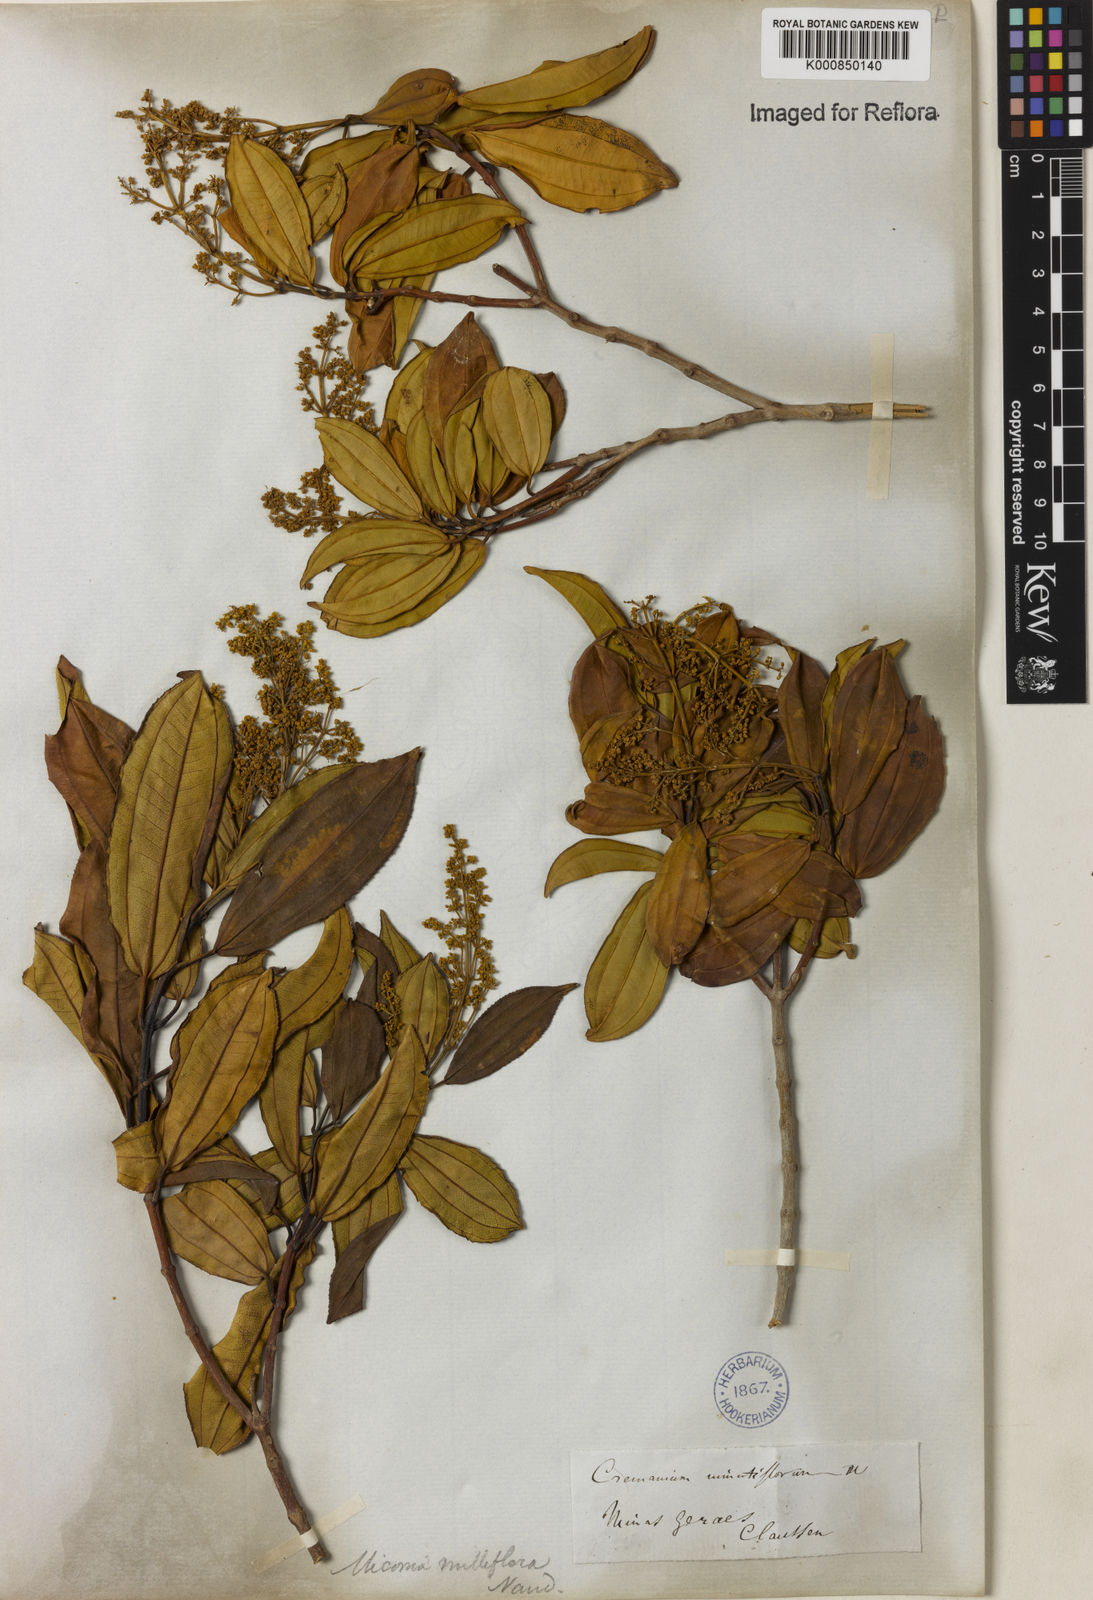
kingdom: Plantae
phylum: Tracheophyta
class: Magnoliopsida
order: Myrtales
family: Melastomataceae
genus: Miconia
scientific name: Miconia
